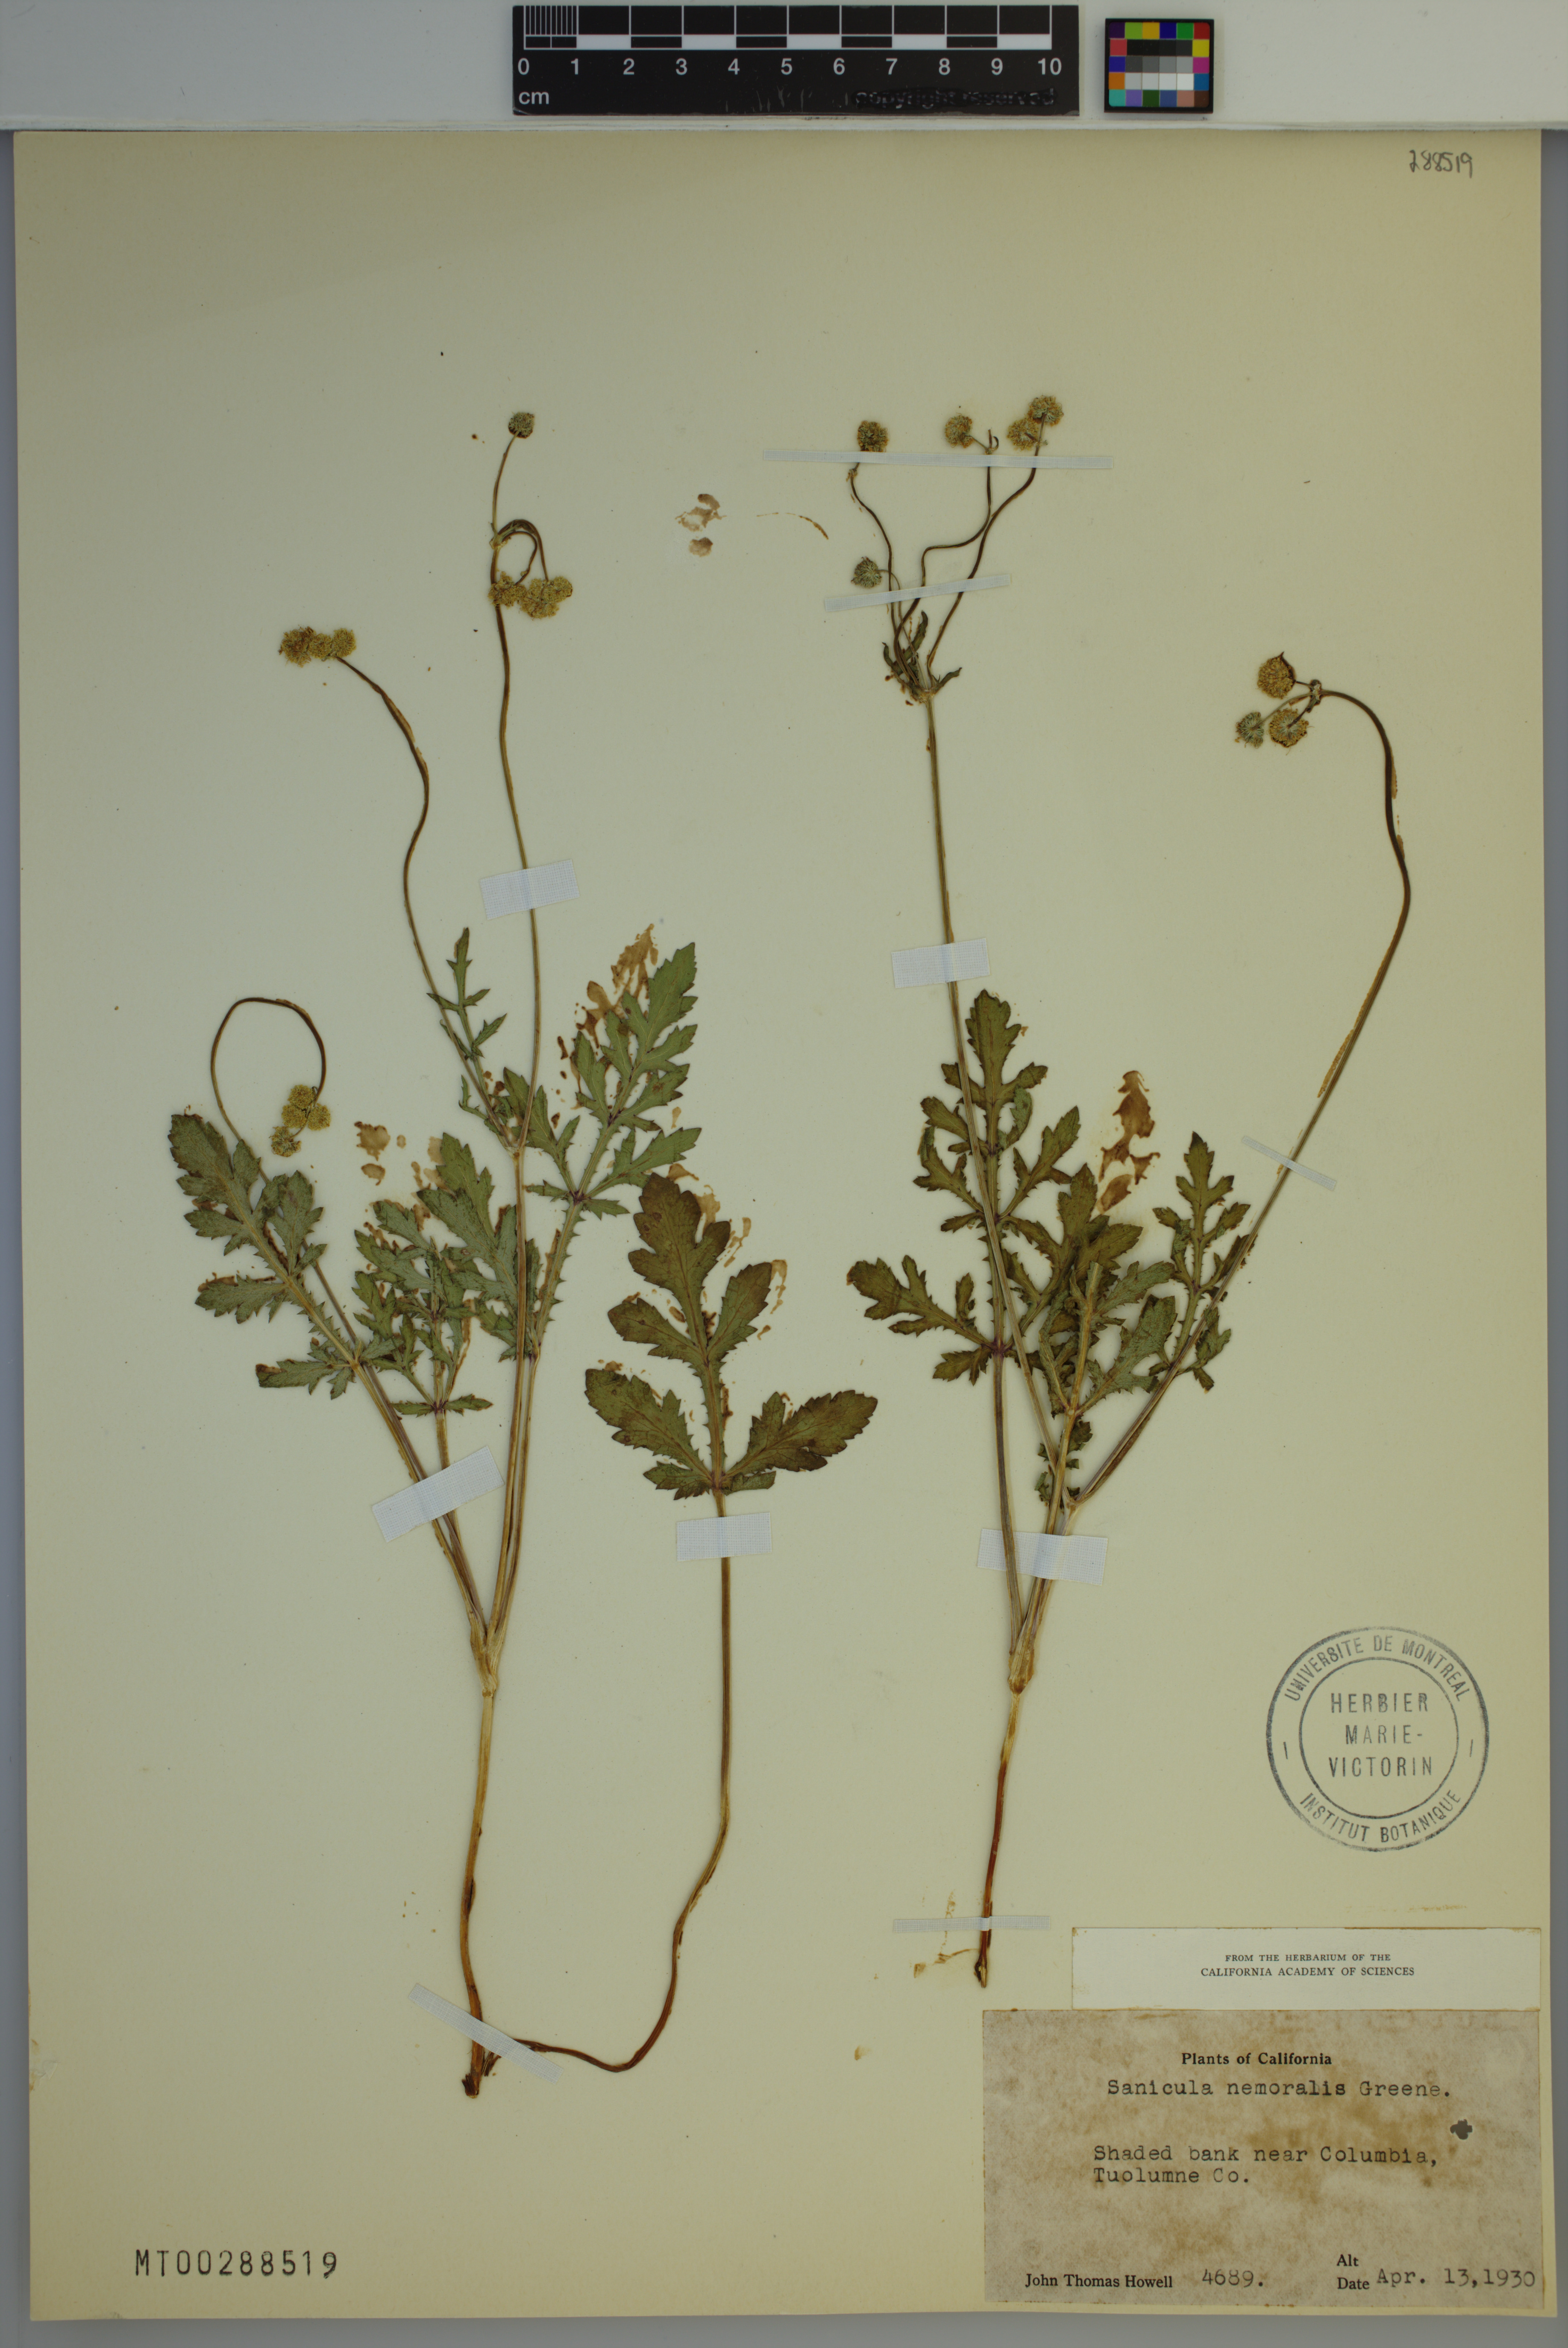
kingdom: Plantae
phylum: Tracheophyta
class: Magnoliopsida
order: Apiales
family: Apiaceae
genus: Sanicula
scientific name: Sanicula graveolens
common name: Sierra sanicle
